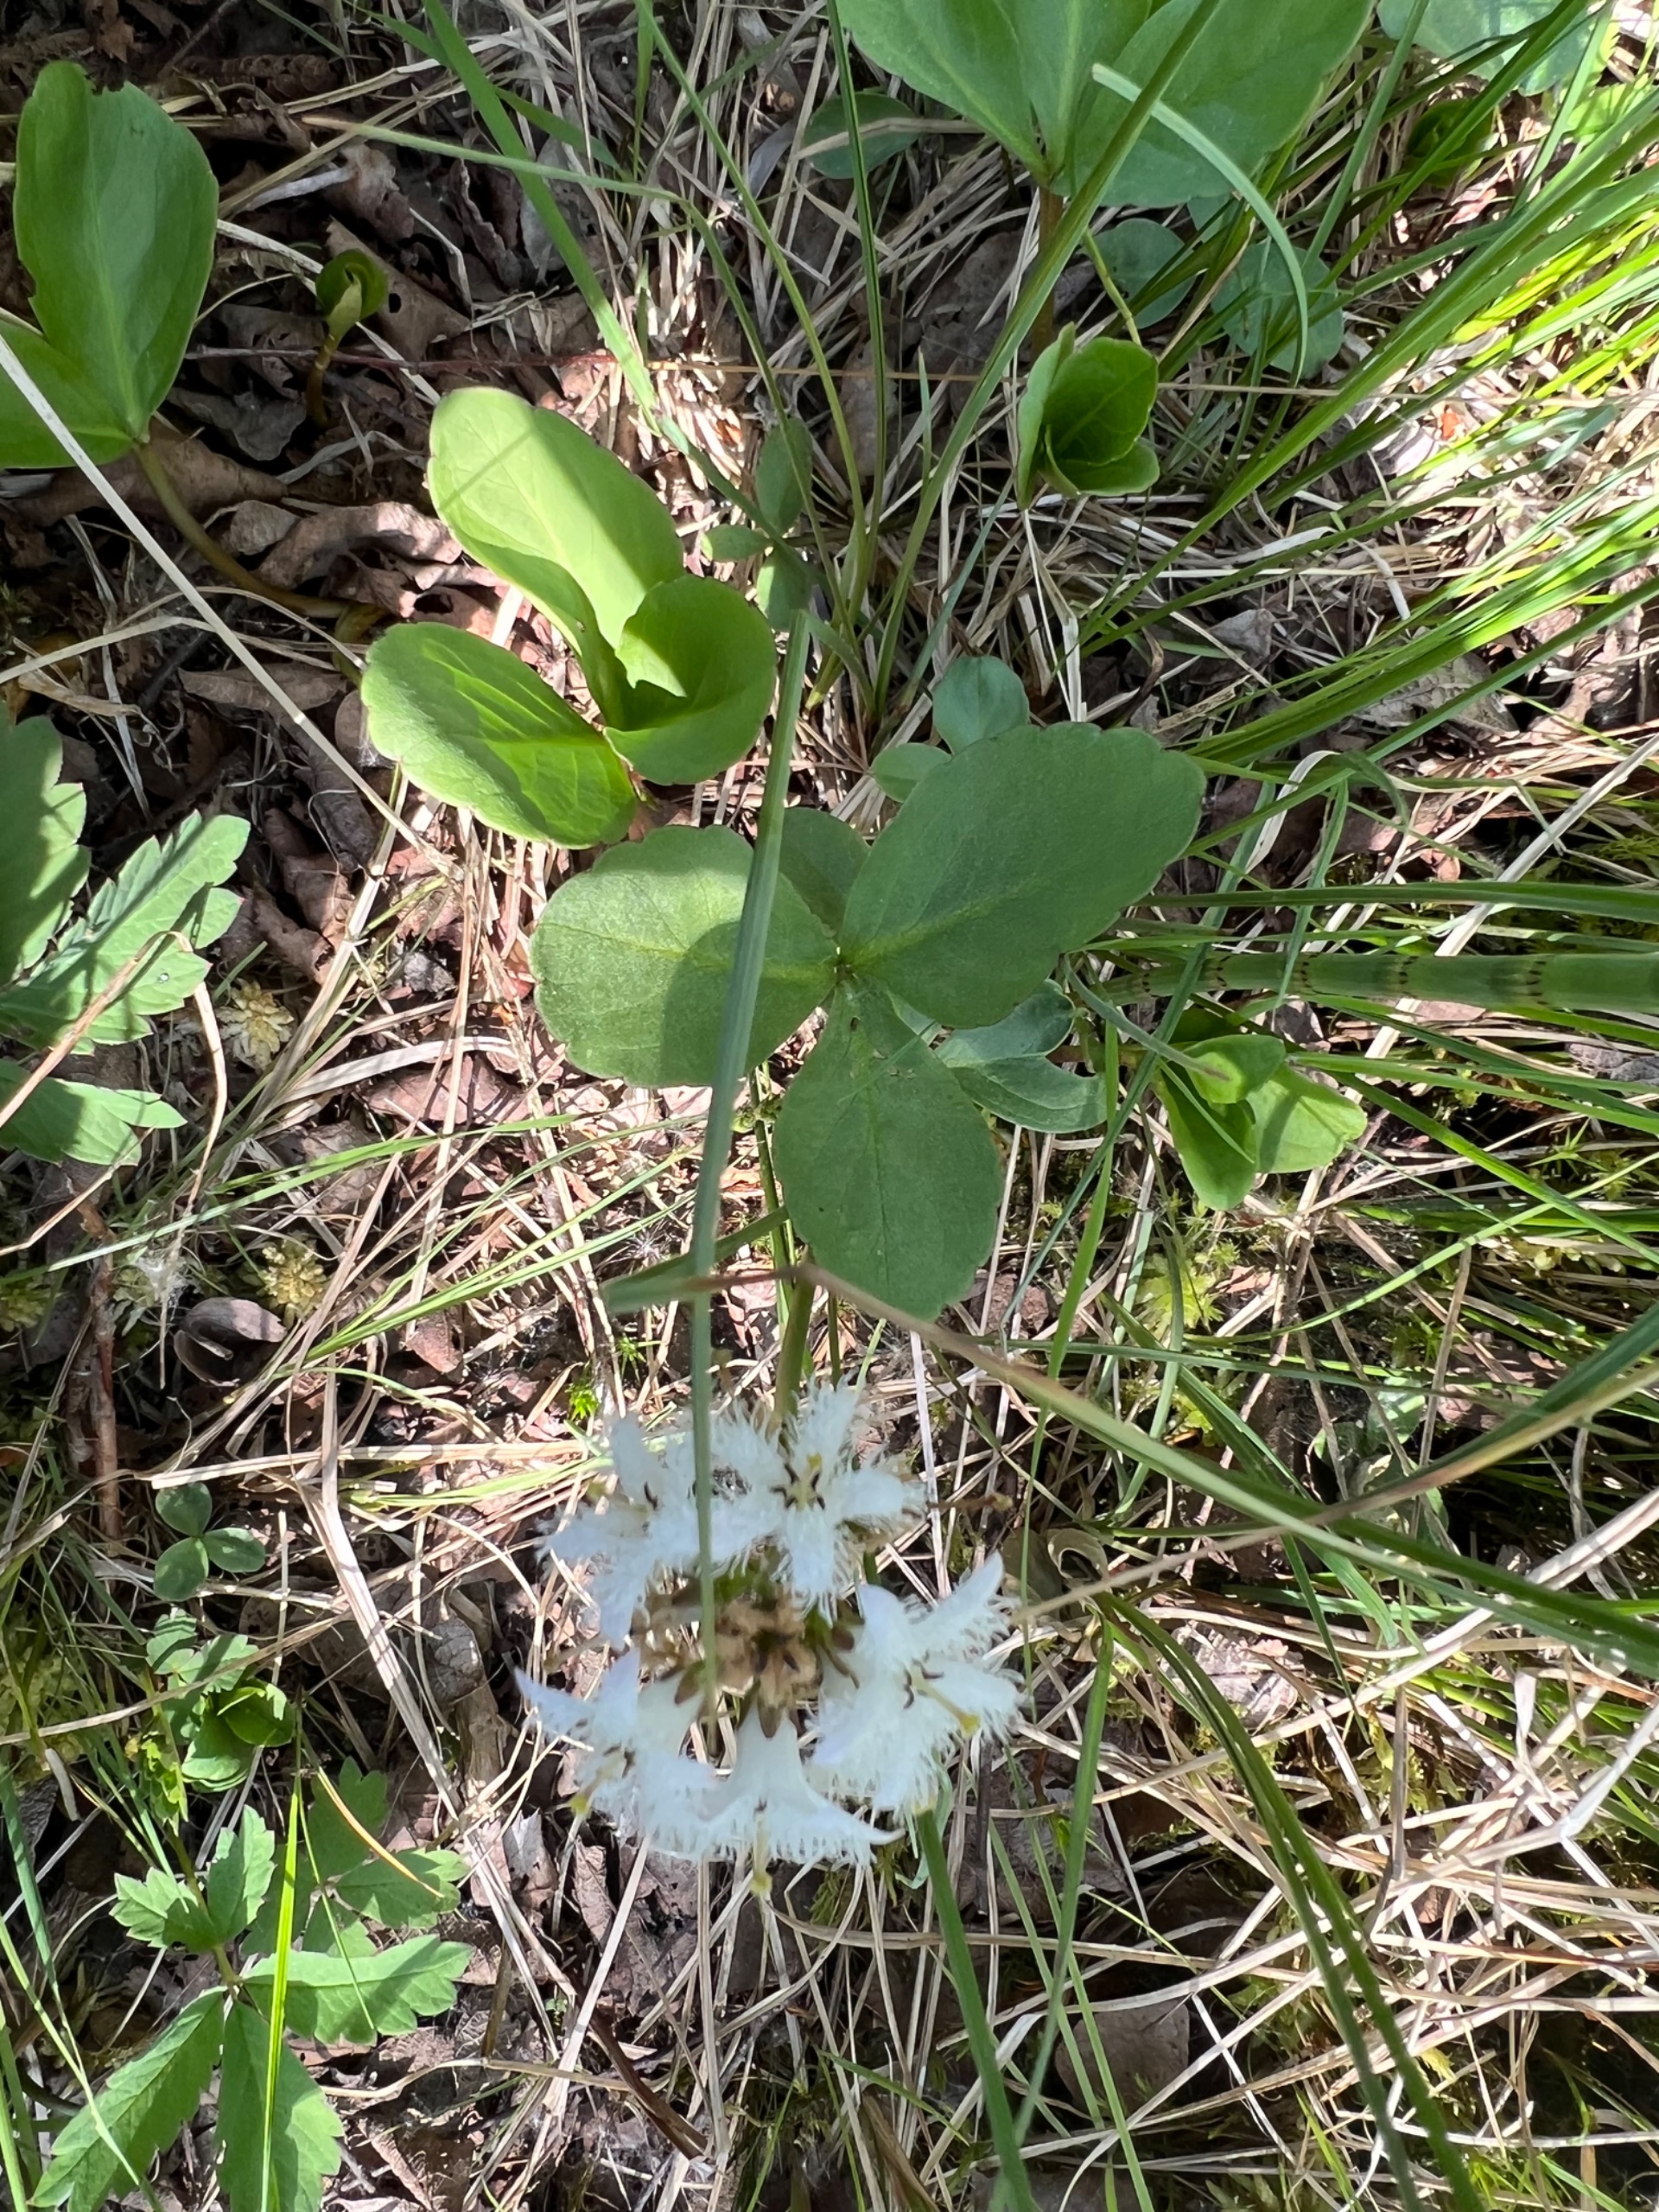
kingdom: Plantae
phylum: Tracheophyta
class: Magnoliopsida
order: Asterales
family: Menyanthaceae
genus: Menyanthes
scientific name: Menyanthes trifoliata
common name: Bukkeblad
